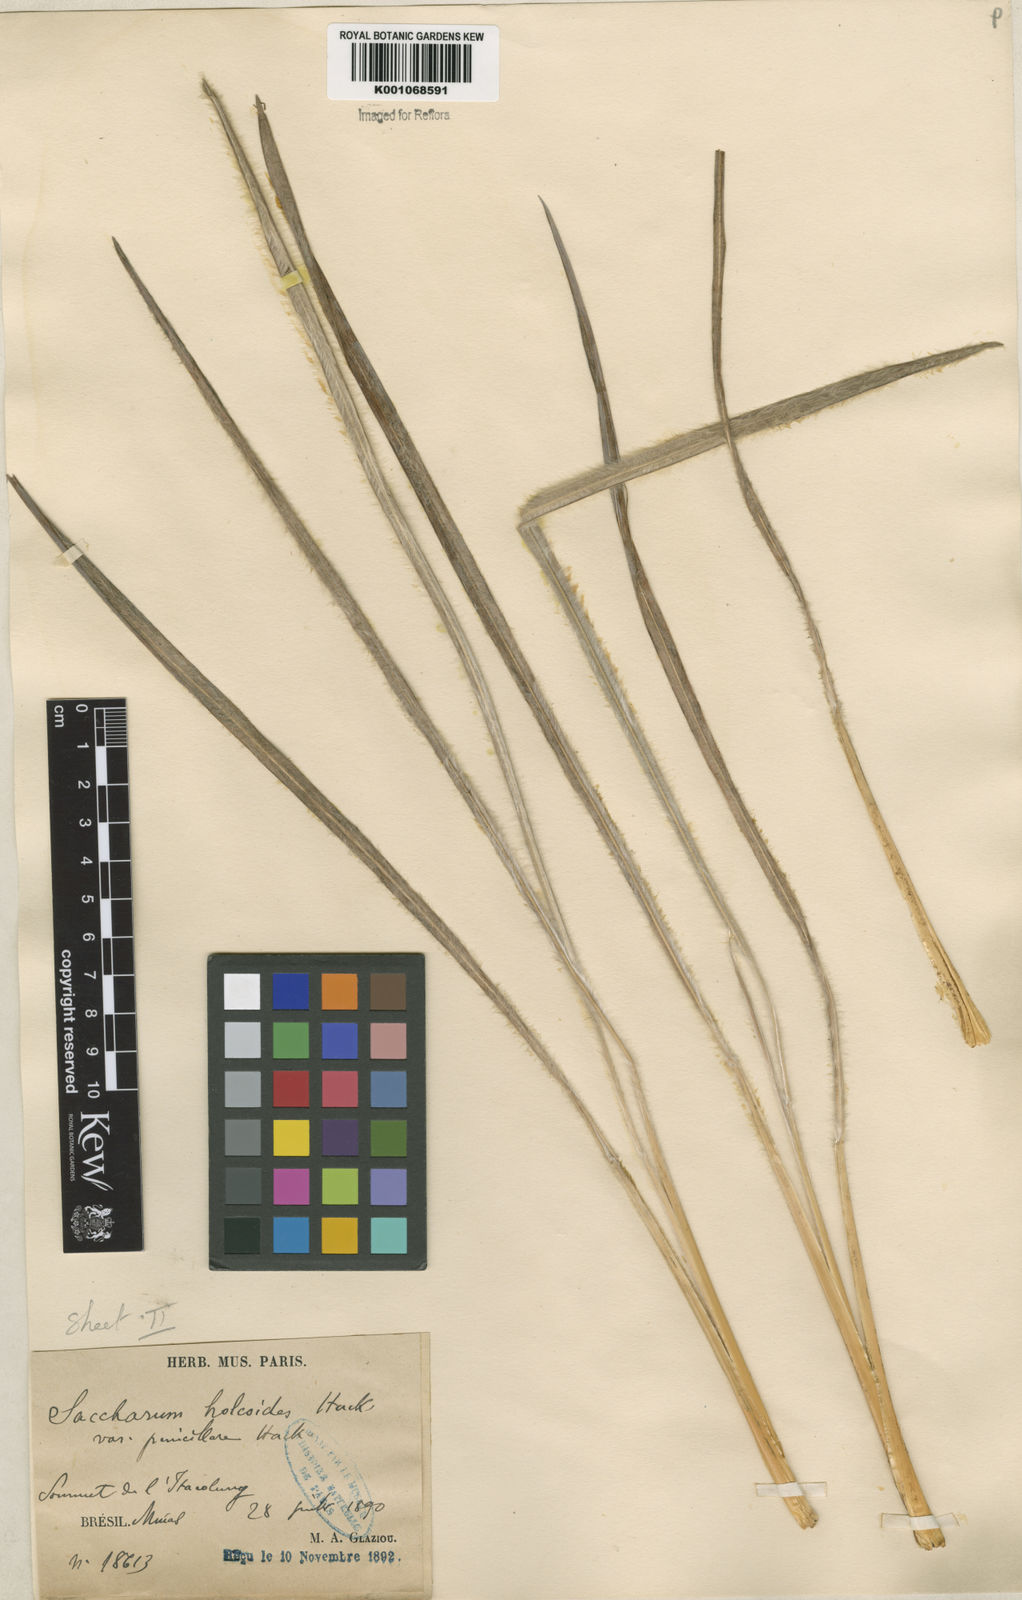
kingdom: Plantae
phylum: Tracheophyta
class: Liliopsida
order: Poales
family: Poaceae
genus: Eriochrysis
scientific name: Eriochrysis holcoides
